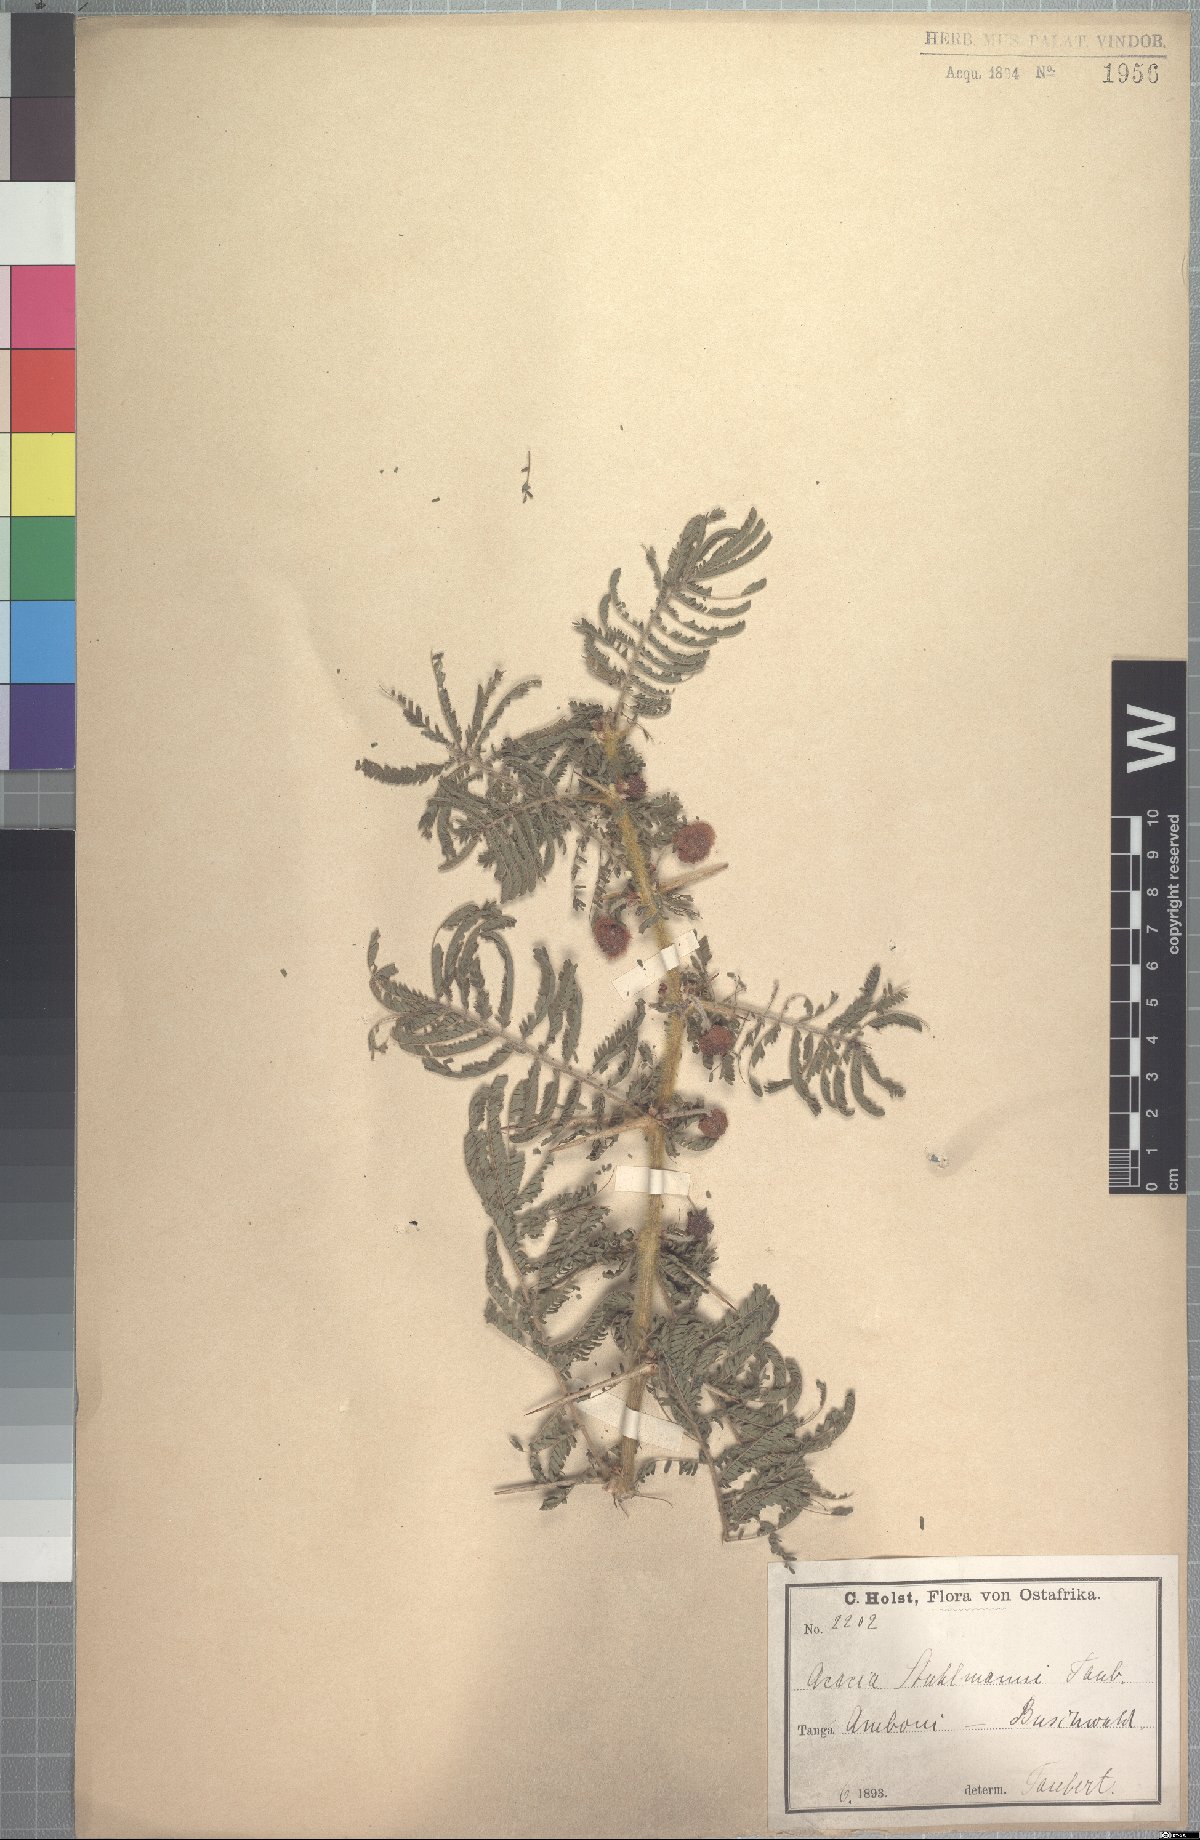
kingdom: Plantae
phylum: Tracheophyta
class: Magnoliopsida
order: Fabales
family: Fabaceae
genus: Vachellia
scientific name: Vachellia stuhlmannii
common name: Vlei thorn
